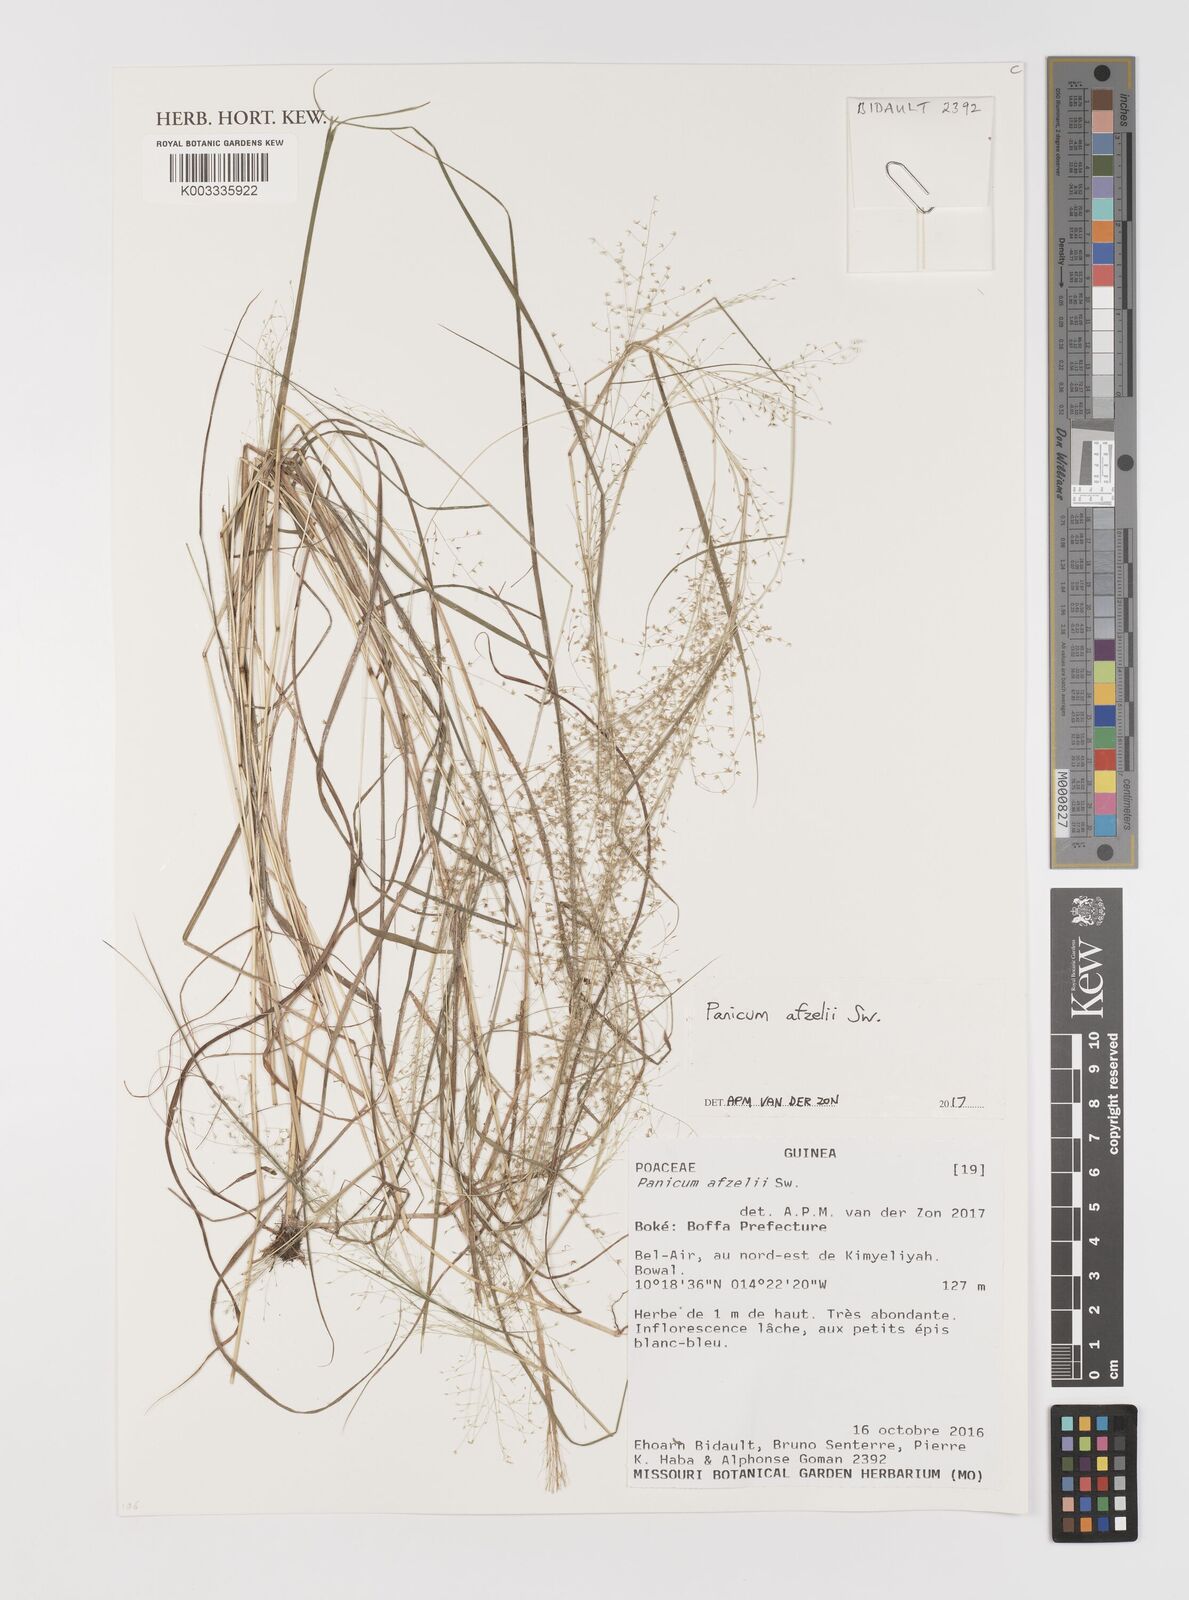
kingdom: Plantae
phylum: Tracheophyta
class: Liliopsida
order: Poales
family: Poaceae
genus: Panicum
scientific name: Panicum afzelii
